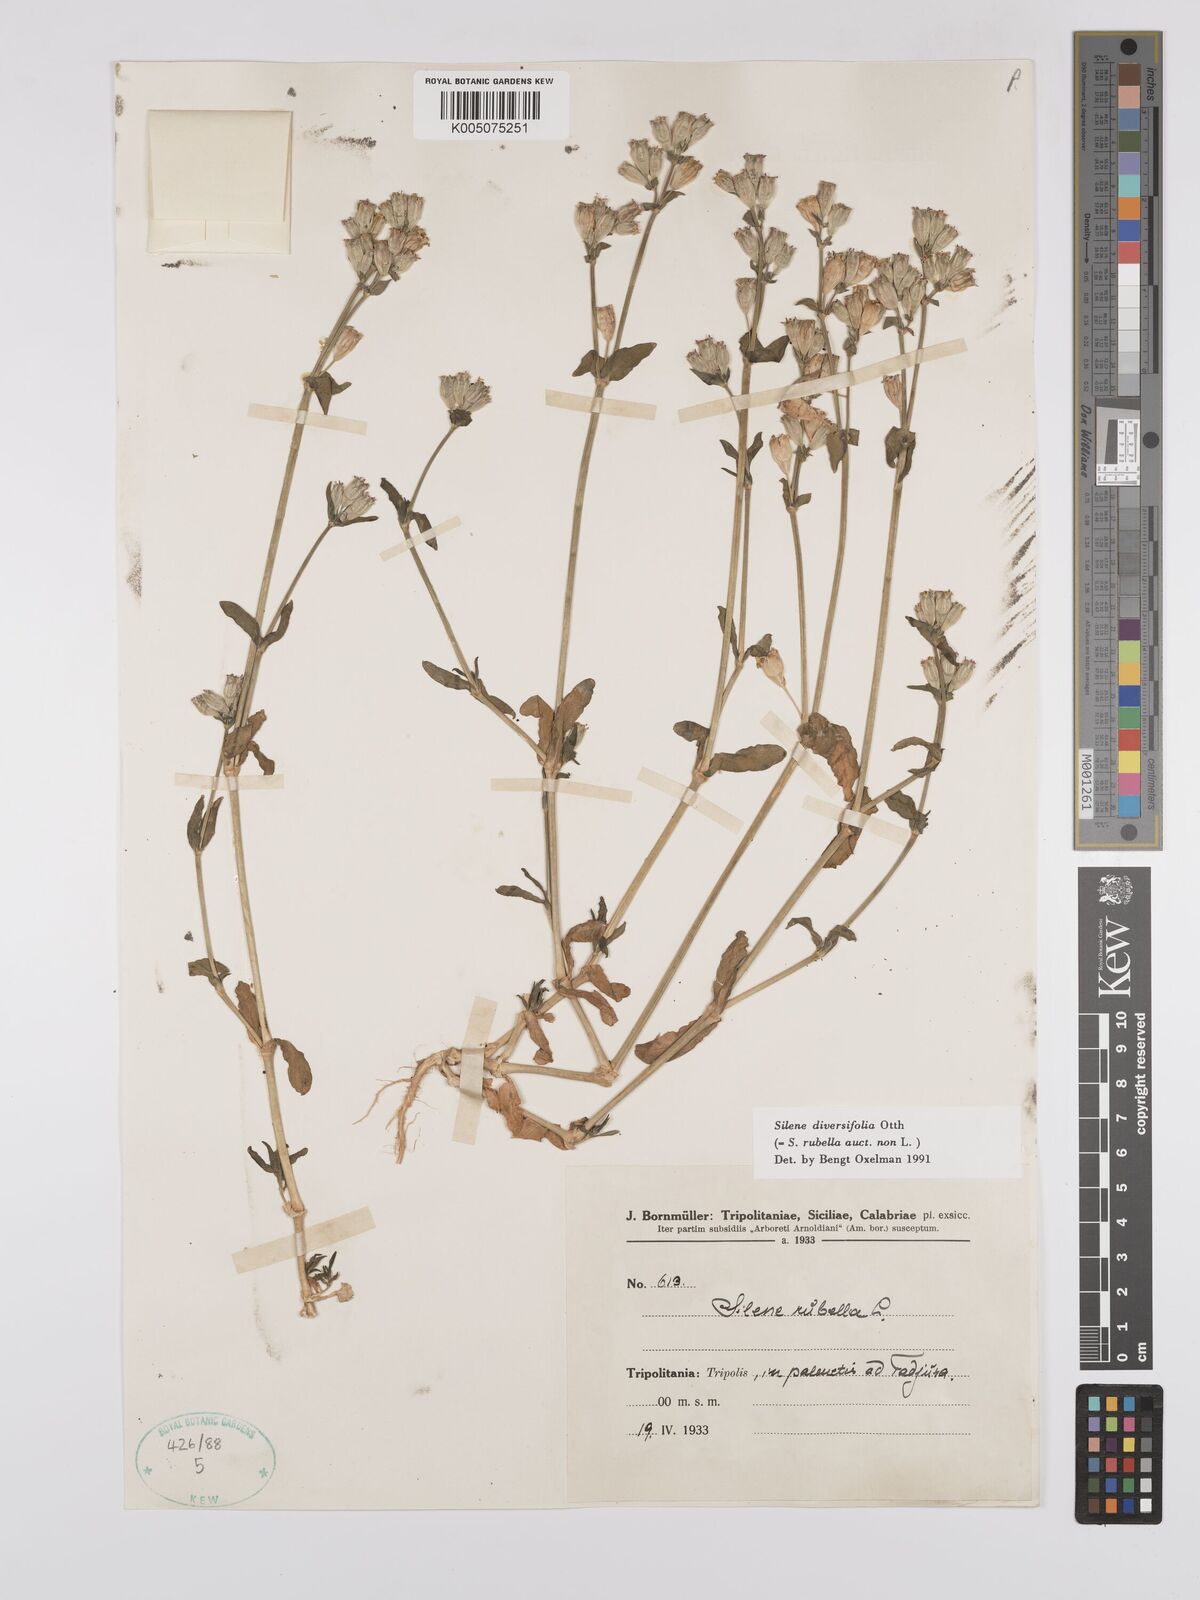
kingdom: Plantae
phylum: Tracheophyta
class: Magnoliopsida
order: Caryophyllales
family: Caryophyllaceae
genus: Silene
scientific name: Silene rubella
